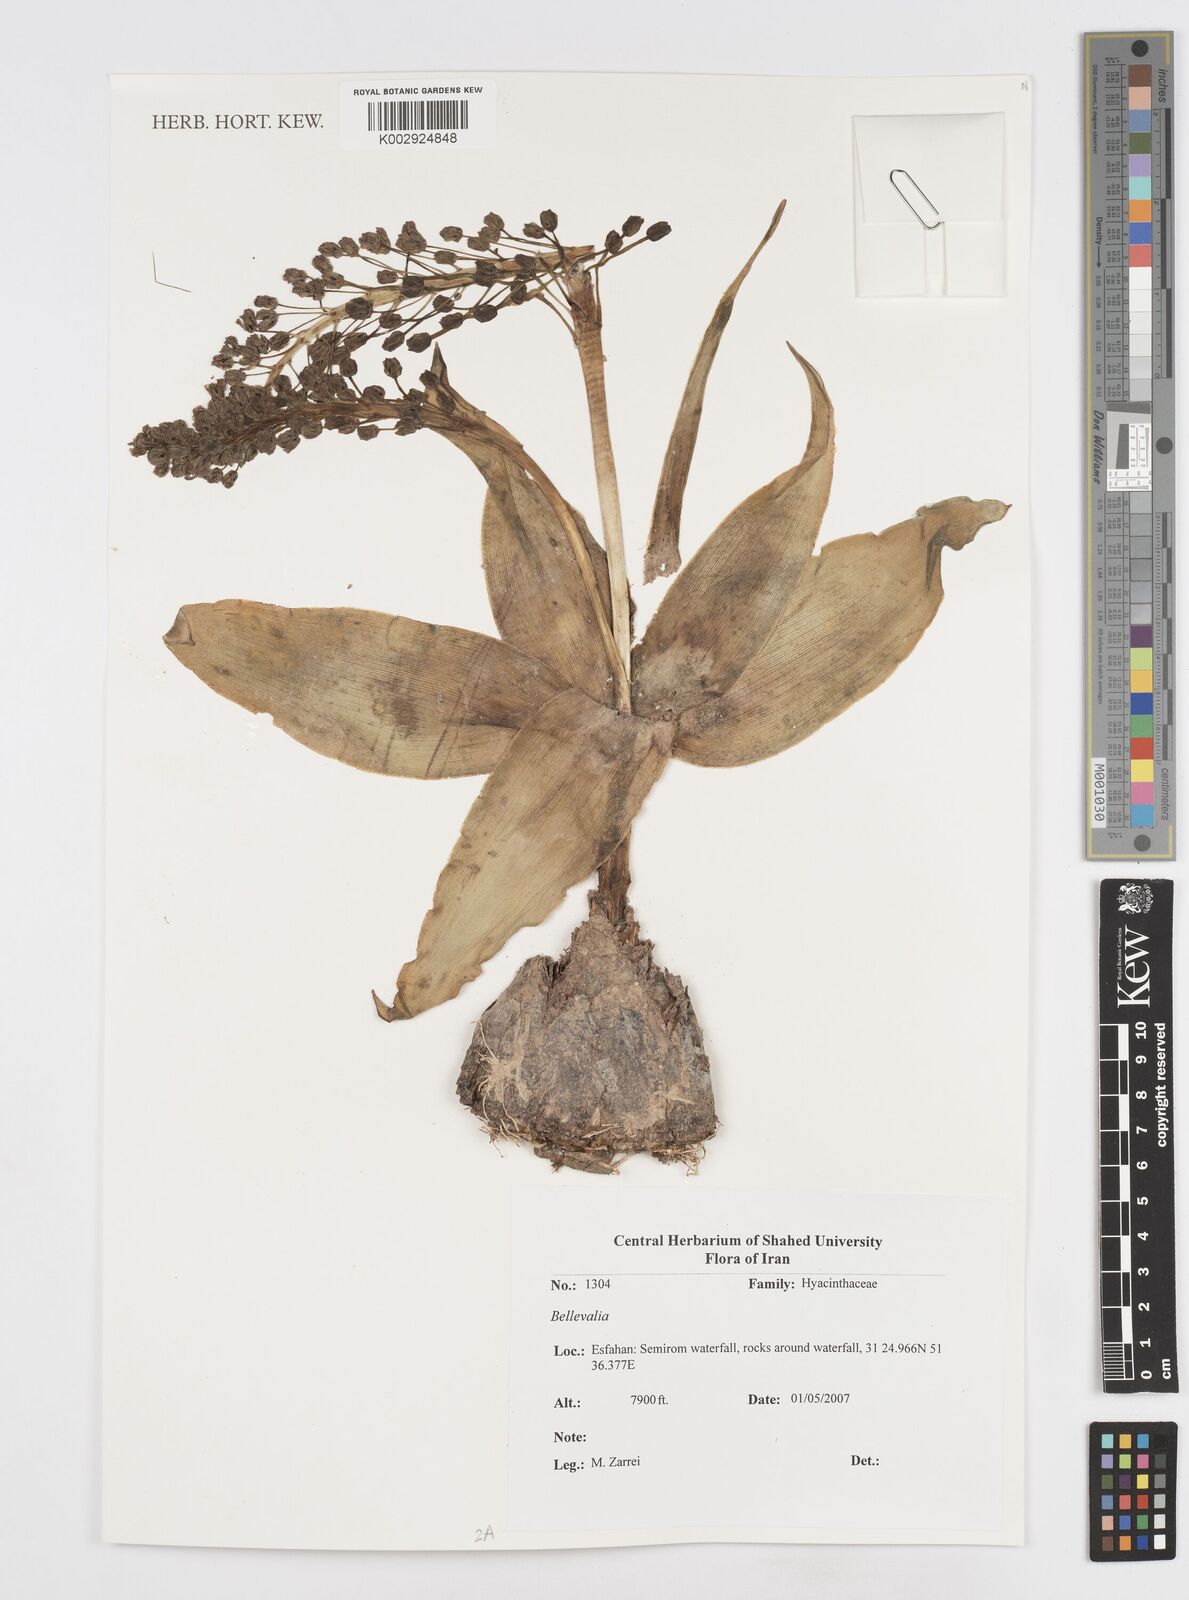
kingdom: Plantae
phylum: Tracheophyta
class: Liliopsida
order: Asparagales
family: Asparagaceae
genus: Bellevalia
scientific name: Bellevalia
